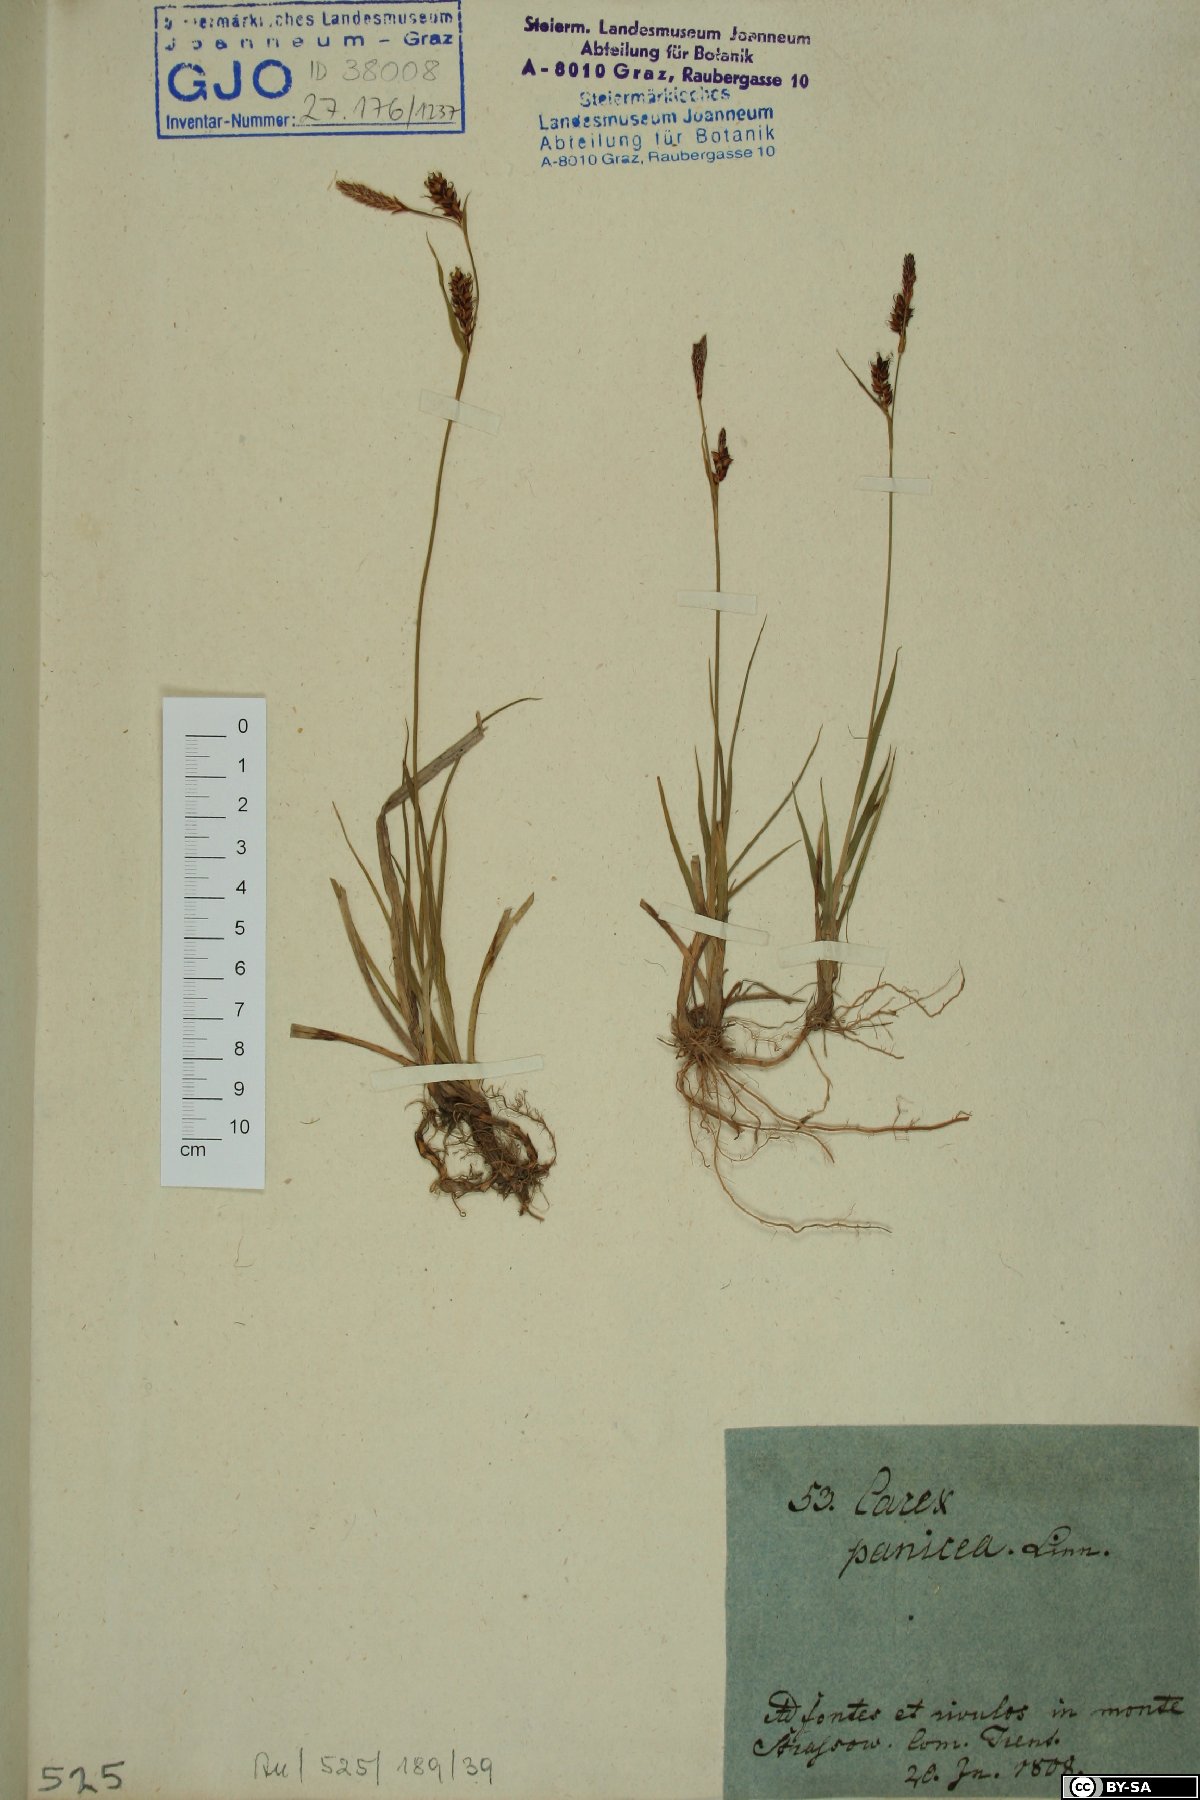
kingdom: Plantae
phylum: Tracheophyta
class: Liliopsida
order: Poales
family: Cyperaceae
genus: Carex
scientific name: Carex panicea
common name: Carnation sedge
